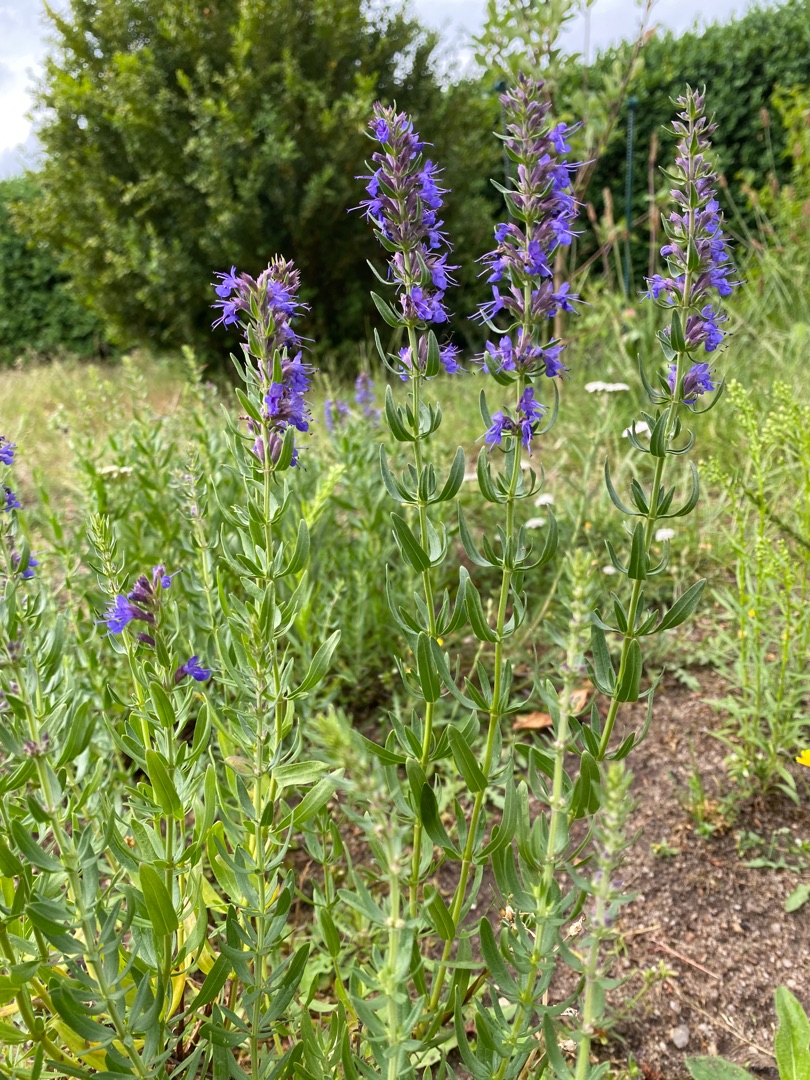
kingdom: Plantae
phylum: Tracheophyta
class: Magnoliopsida
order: Lamiales
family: Lamiaceae
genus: Hyssopus
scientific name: Hyssopus officinalis
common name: Isop
